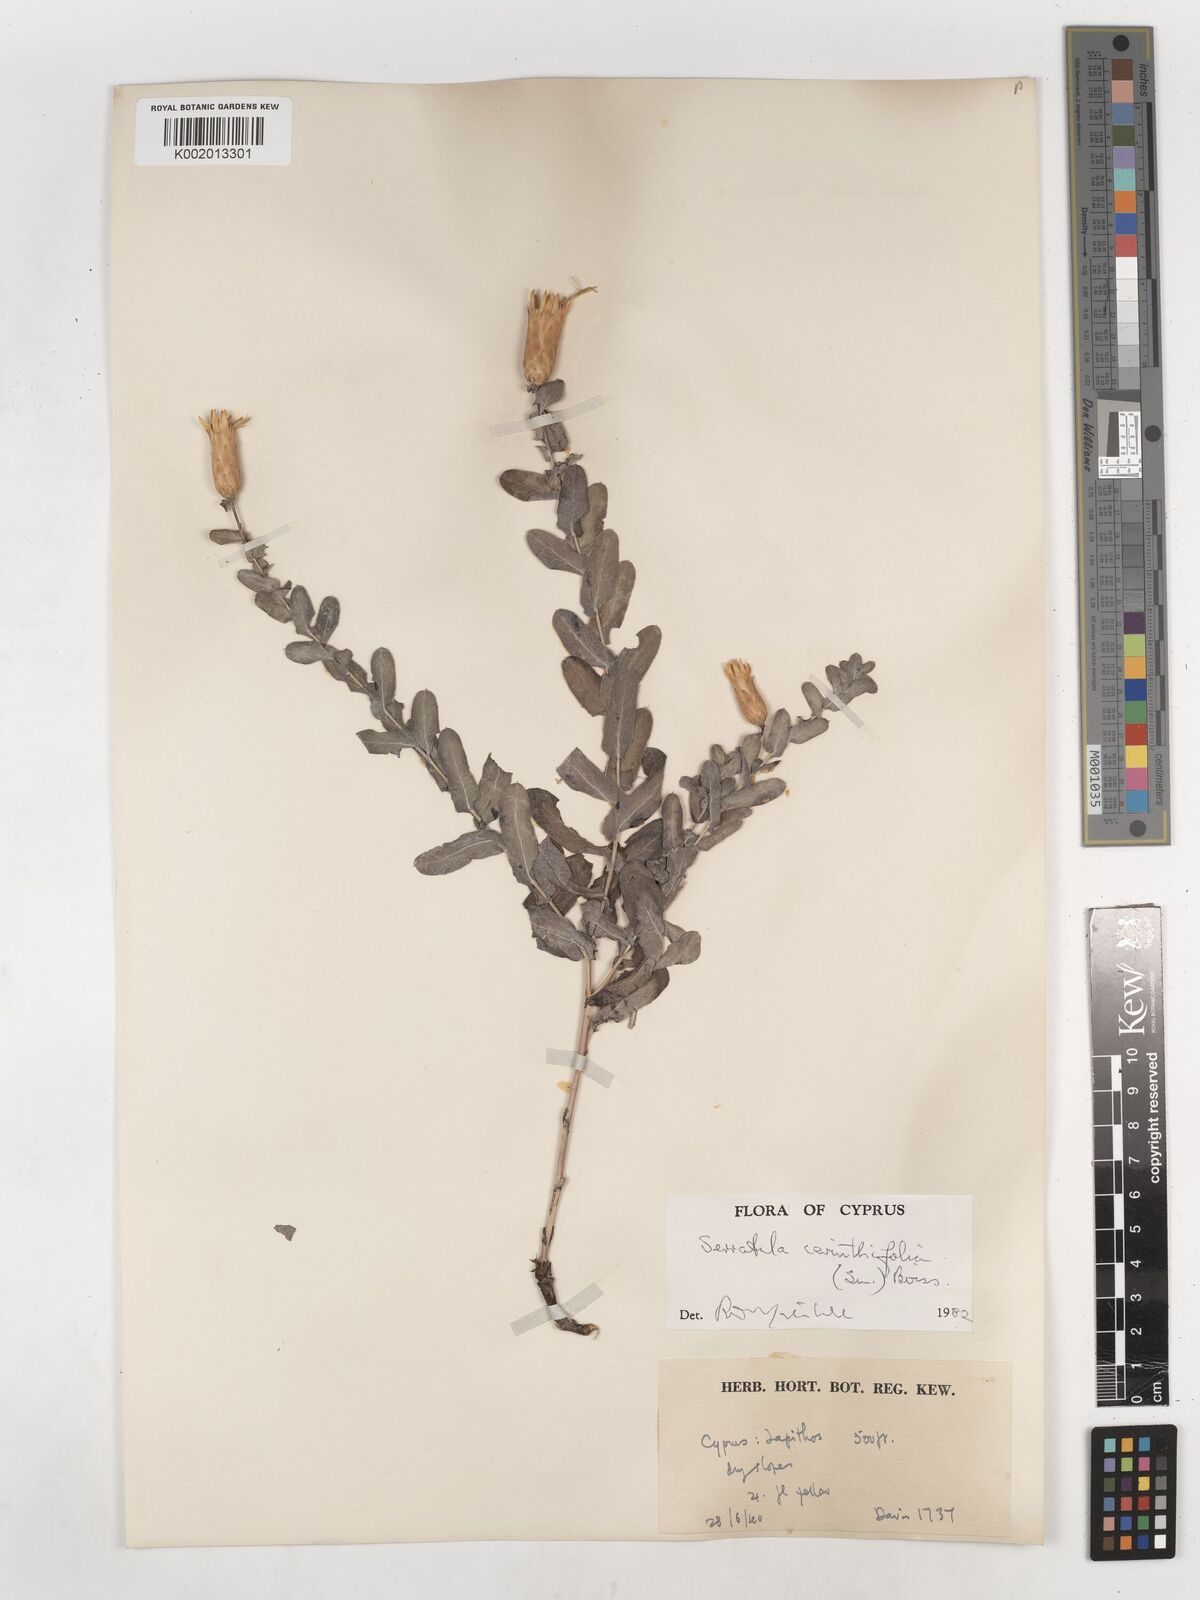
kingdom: Plantae
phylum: Tracheophyta
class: Magnoliopsida
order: Asterales
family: Asteraceae
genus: Klasea
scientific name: Klasea cerinthifolia
